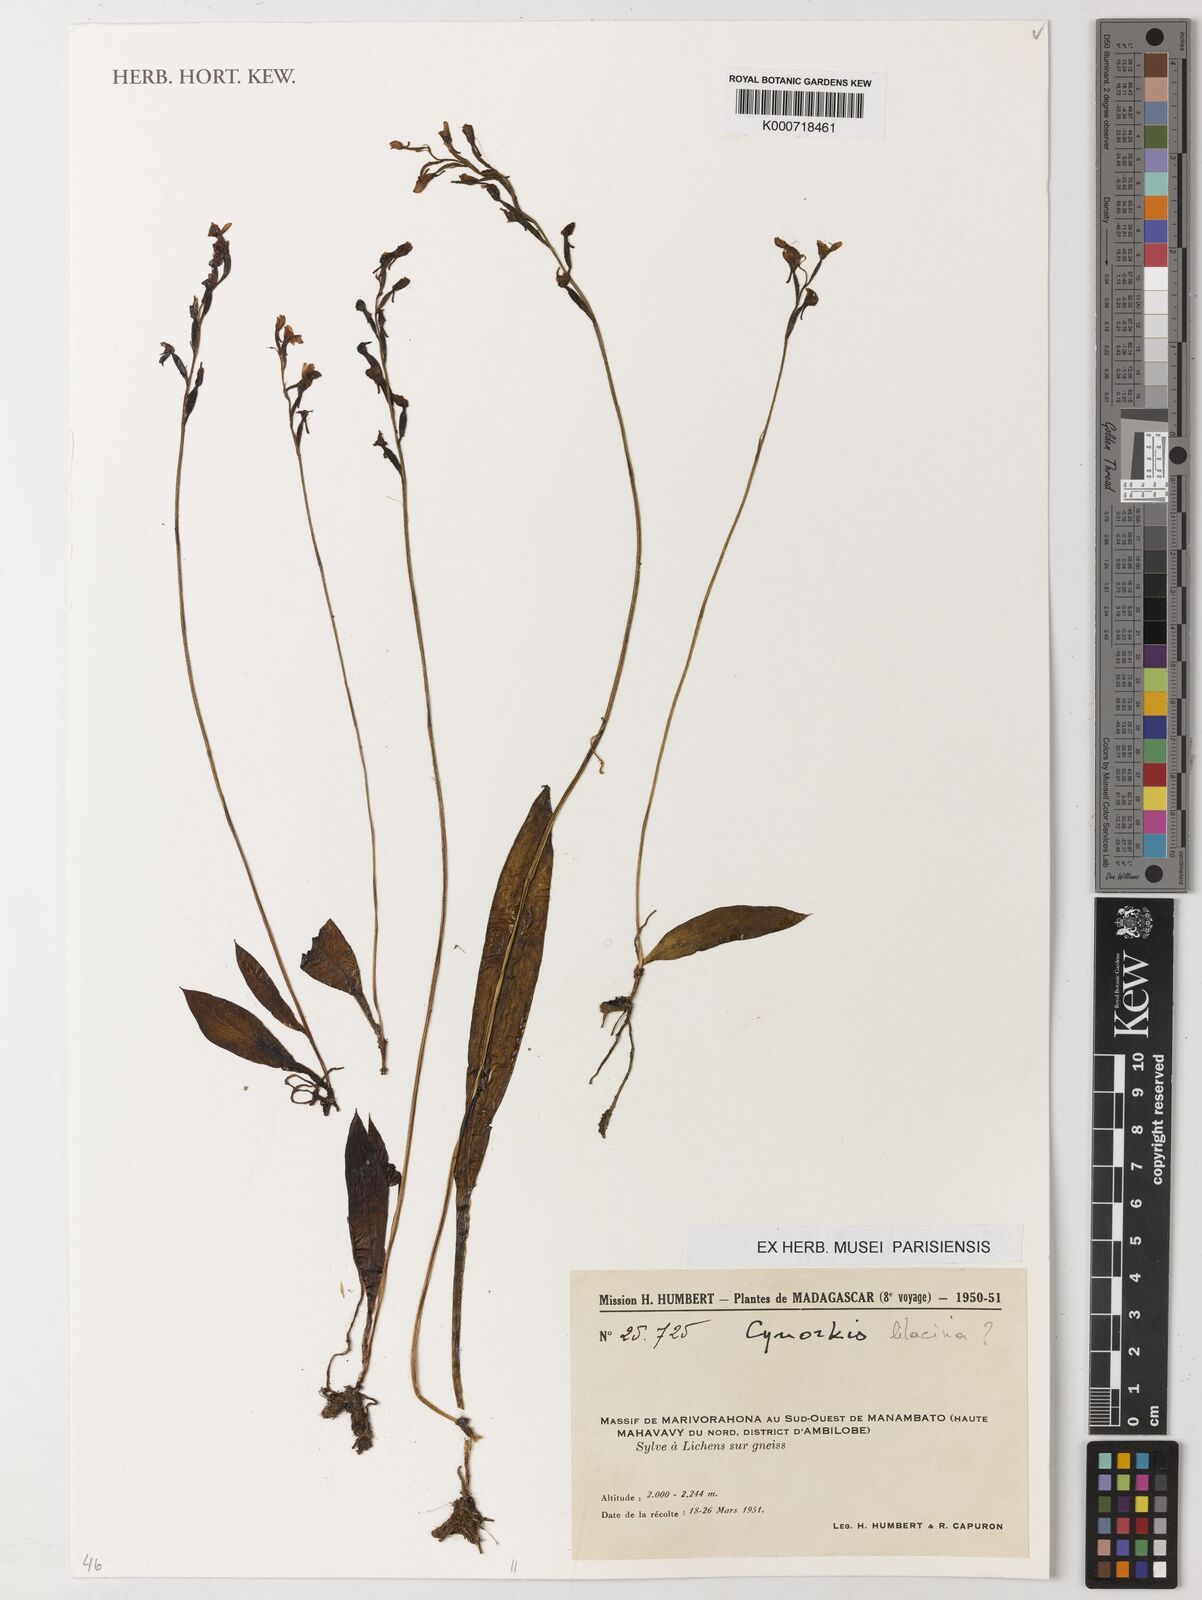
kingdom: Plantae
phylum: Tracheophyta
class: Liliopsida
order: Asparagales
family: Orchidaceae
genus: Cynorkis
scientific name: Cynorkis lilacina
